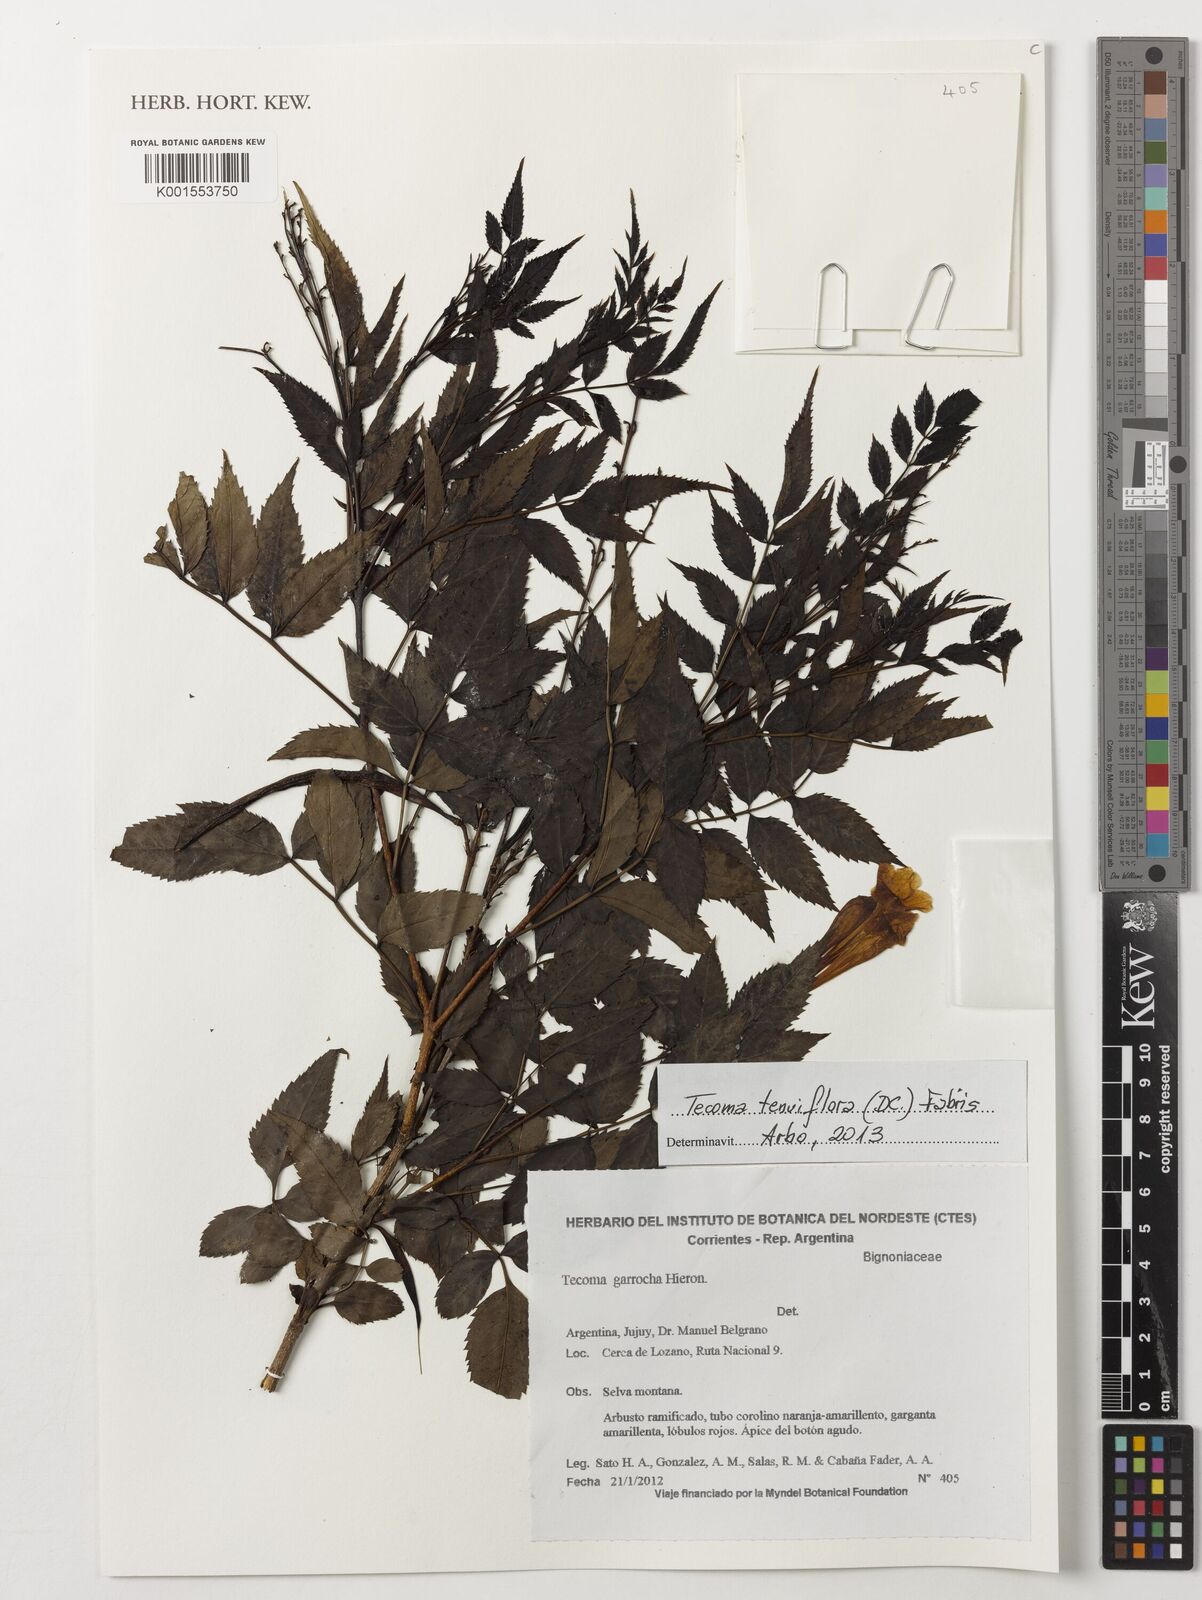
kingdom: Plantae
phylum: Tracheophyta
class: Magnoliopsida
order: Lamiales
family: Bignoniaceae
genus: Tecoma
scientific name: Tecoma fulva
